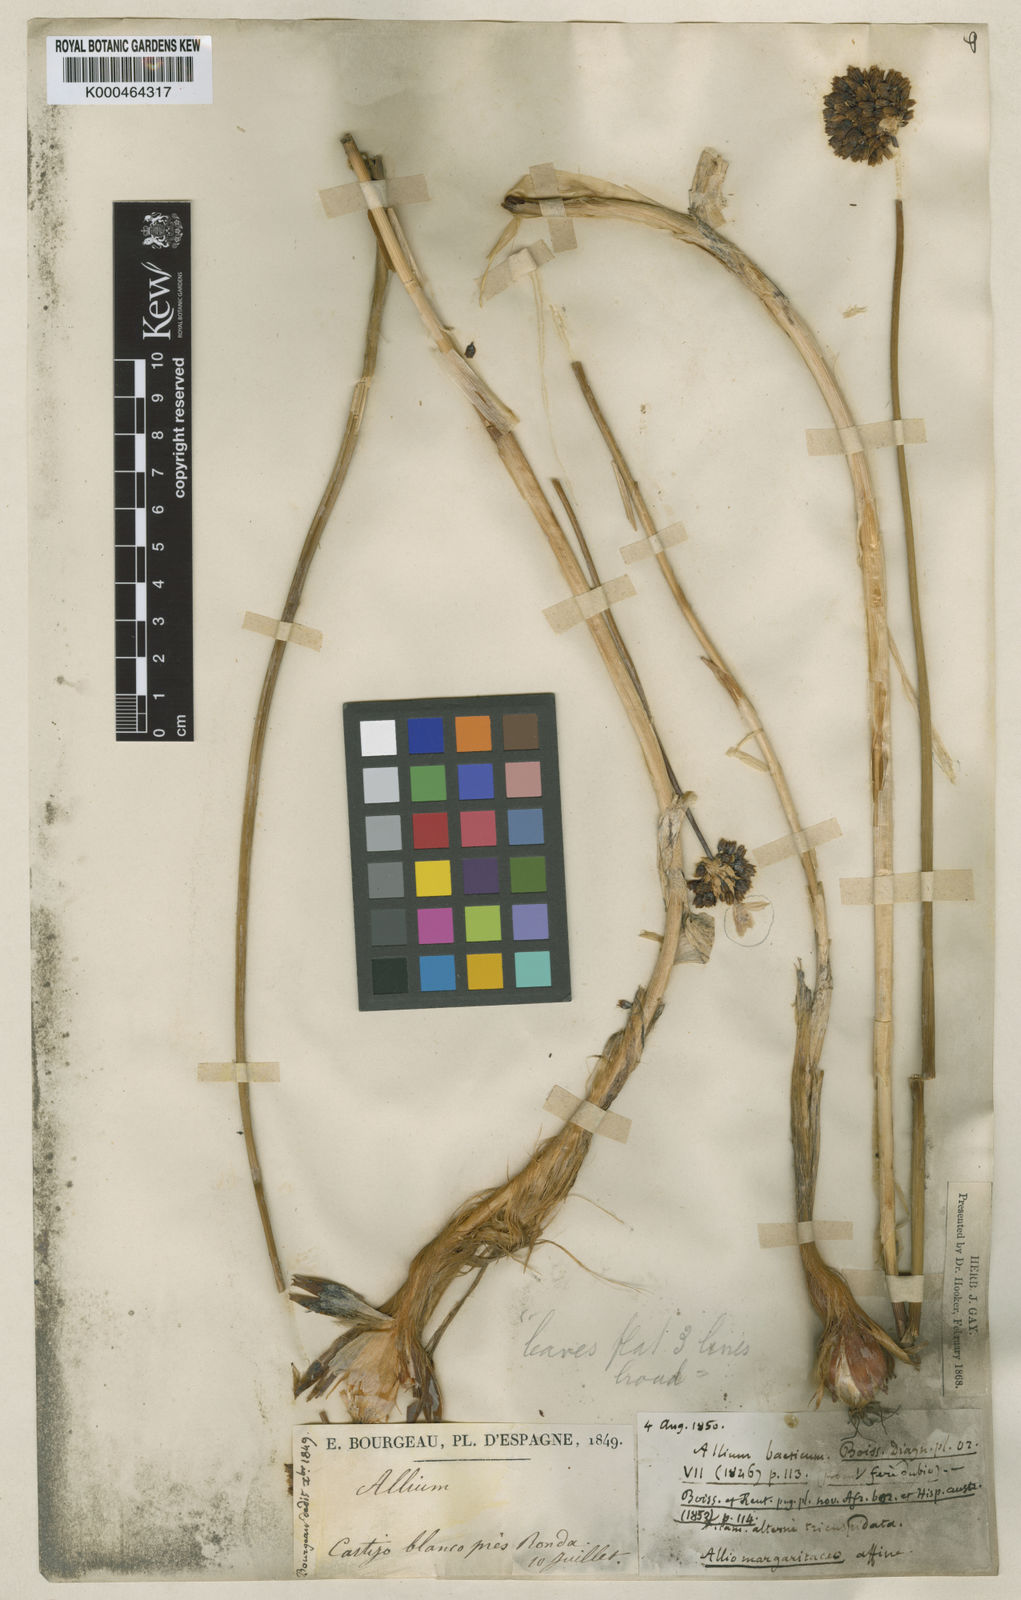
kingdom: Plantae
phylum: Tracheophyta
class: Liliopsida
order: Asparagales
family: Amaryllidaceae
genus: Allium
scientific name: Allium baeticum
